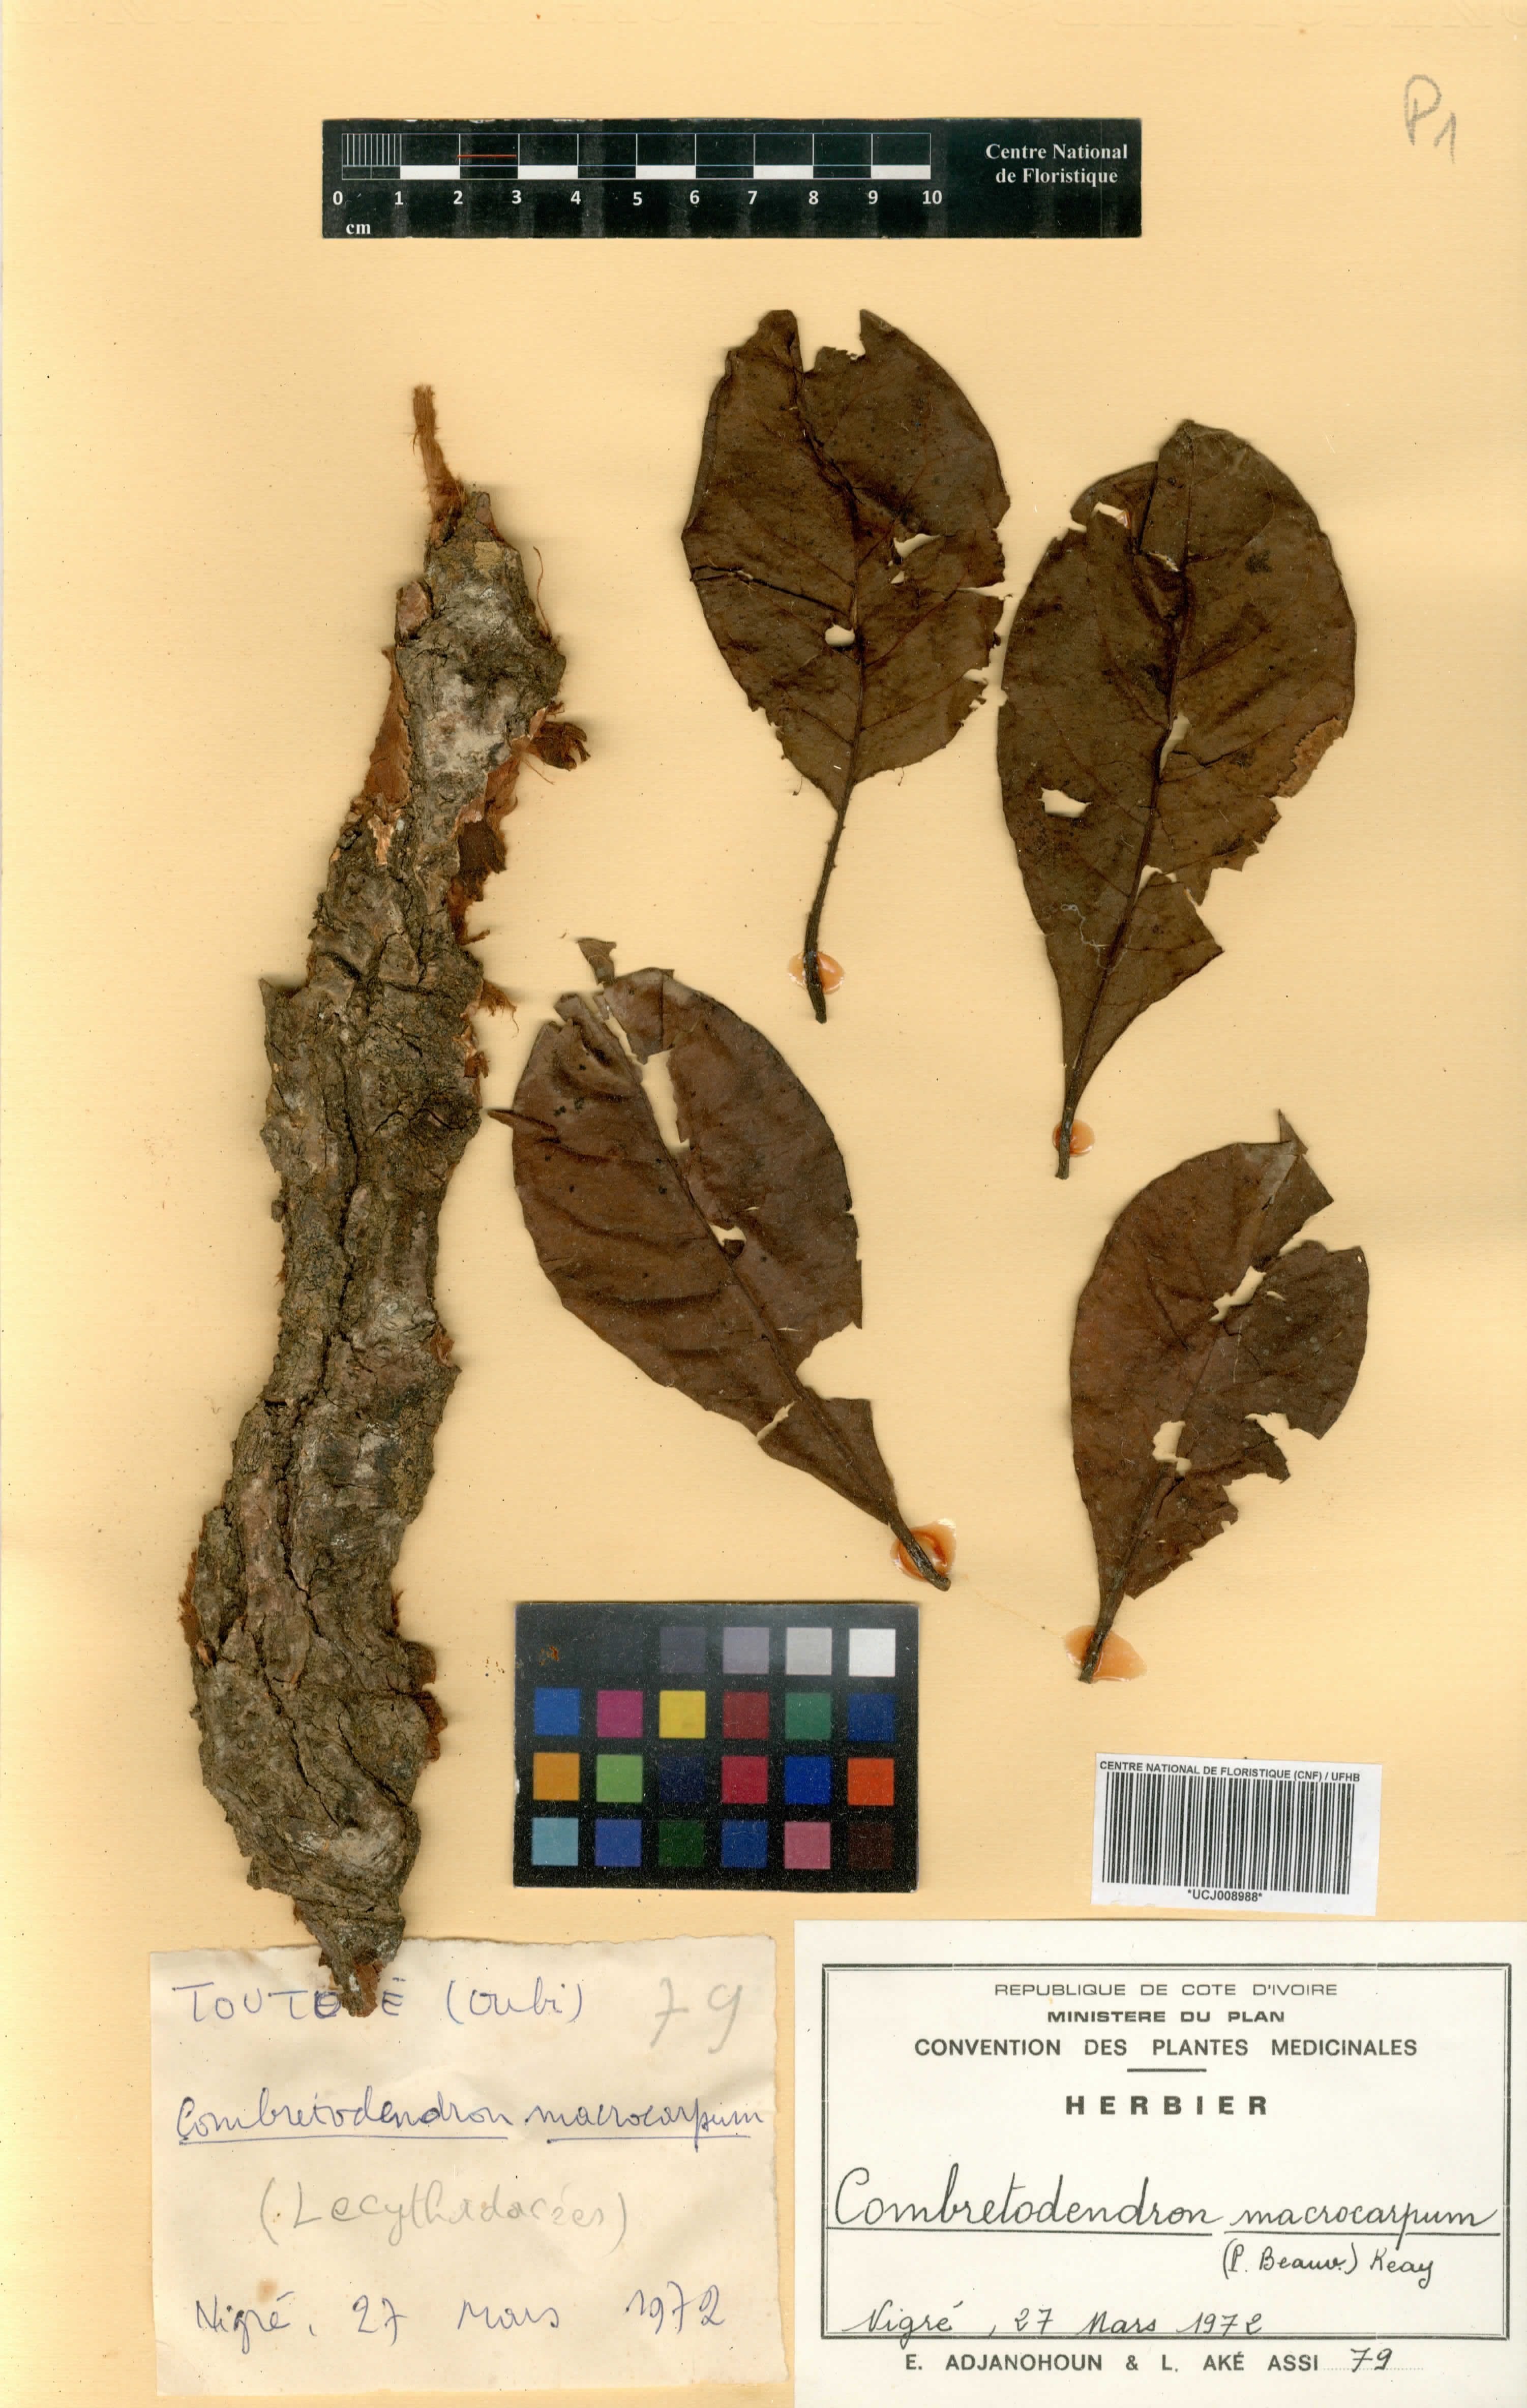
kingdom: Plantae
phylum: Tracheophyta
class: Magnoliopsida
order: Ericales
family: Lecythidaceae
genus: Petersianthus
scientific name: Petersianthus macrocarpus
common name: Essia
